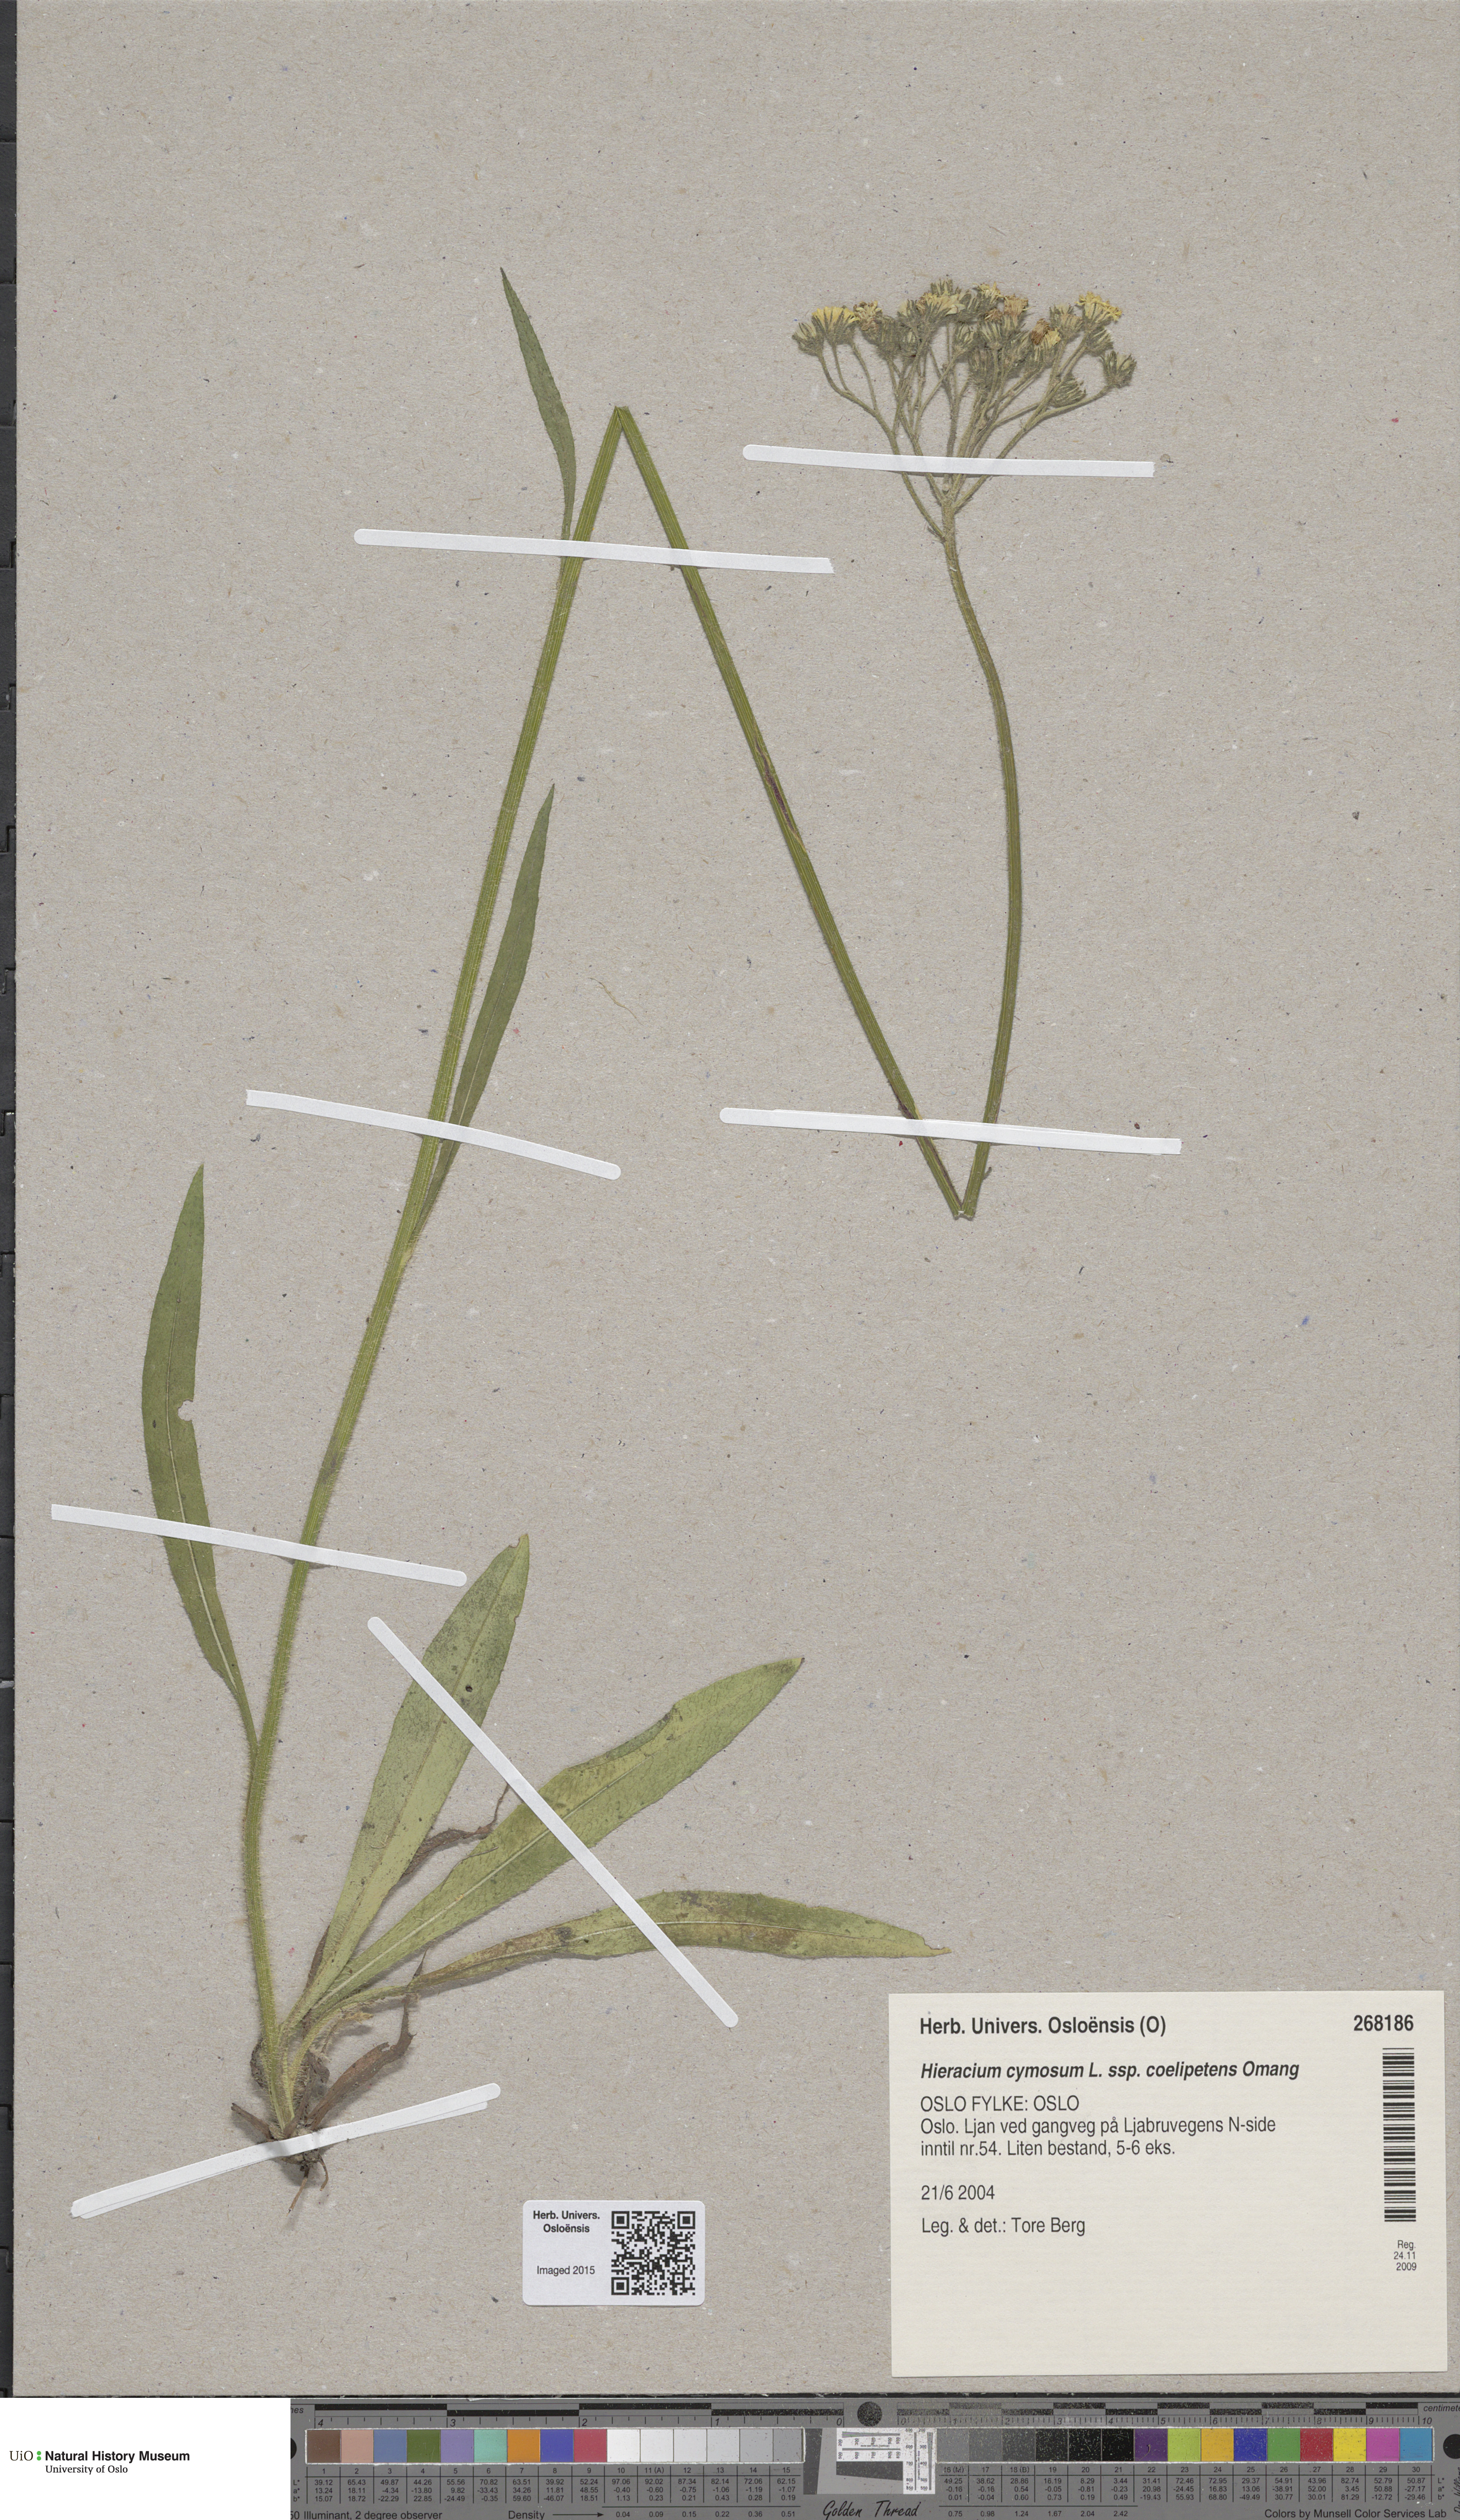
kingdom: Plantae
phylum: Tracheophyta
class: Magnoliopsida
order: Asterales
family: Asteraceae
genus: Pilosella
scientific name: Pilosella cymosa
